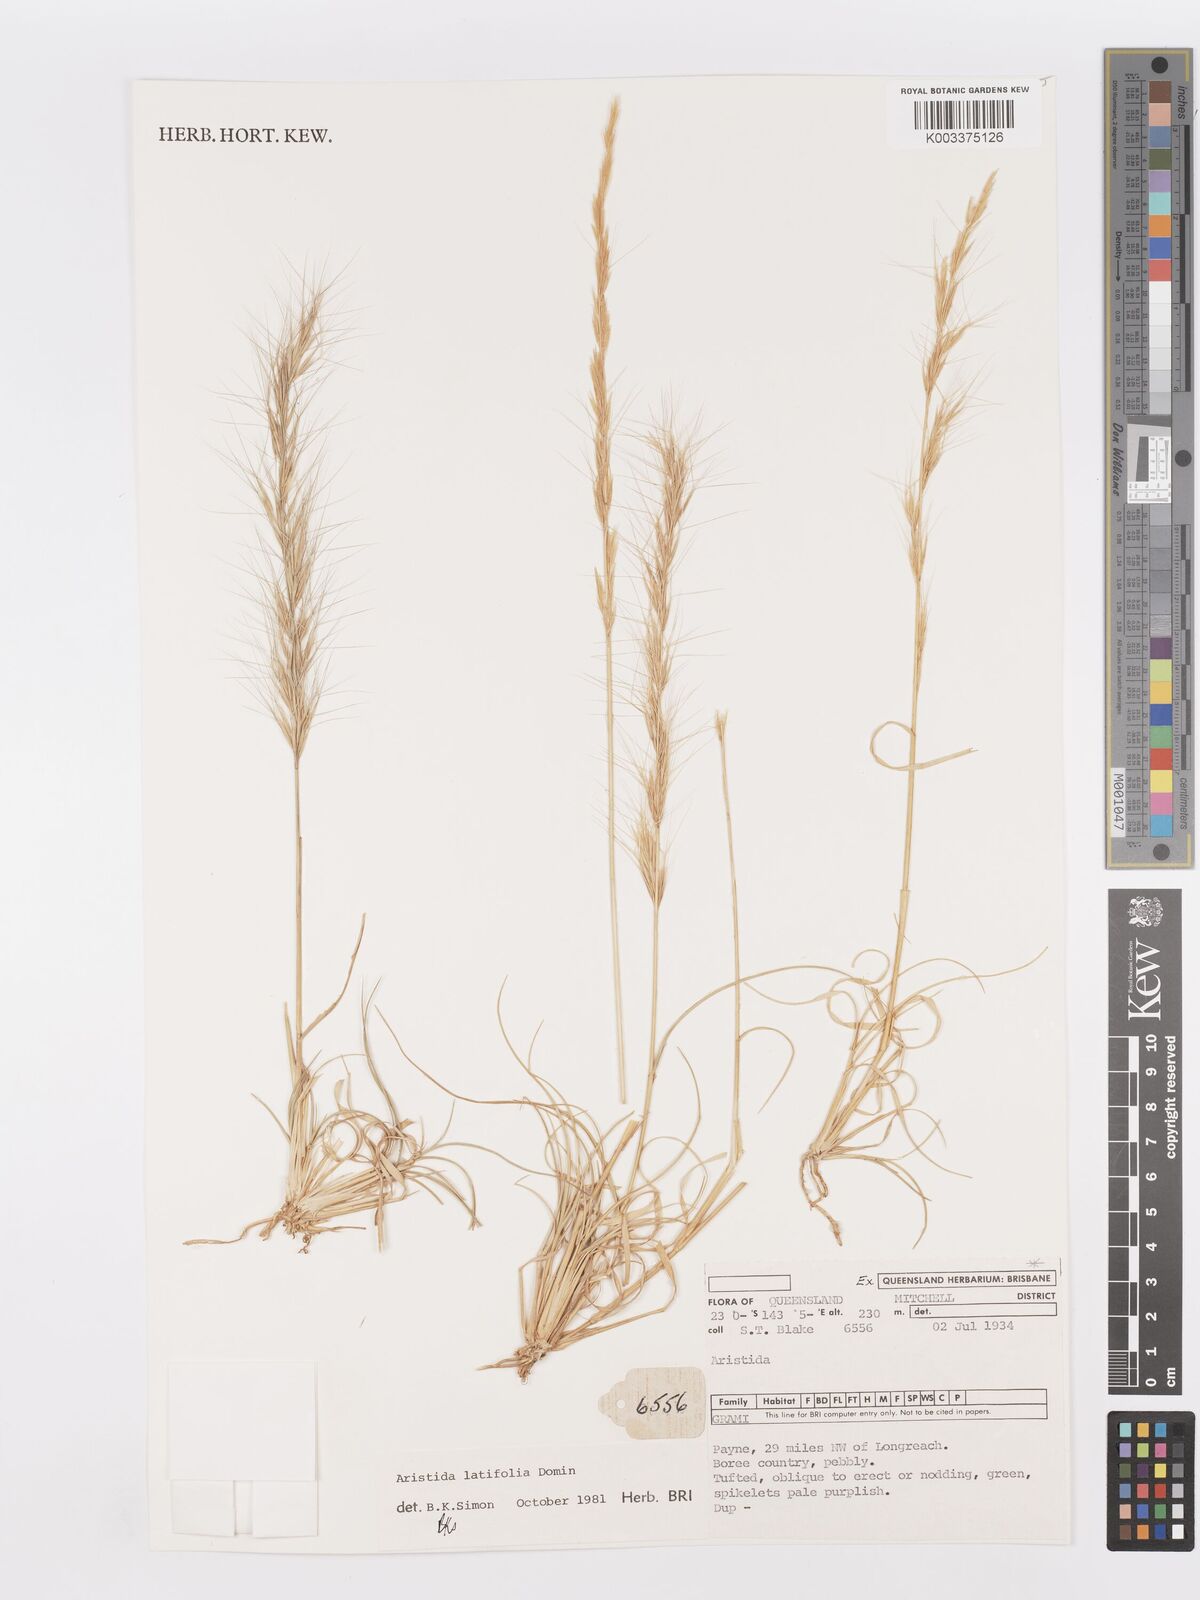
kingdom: Plantae
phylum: Tracheophyta
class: Liliopsida
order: Poales
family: Poaceae
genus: Aristida
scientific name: Aristida latifolia
